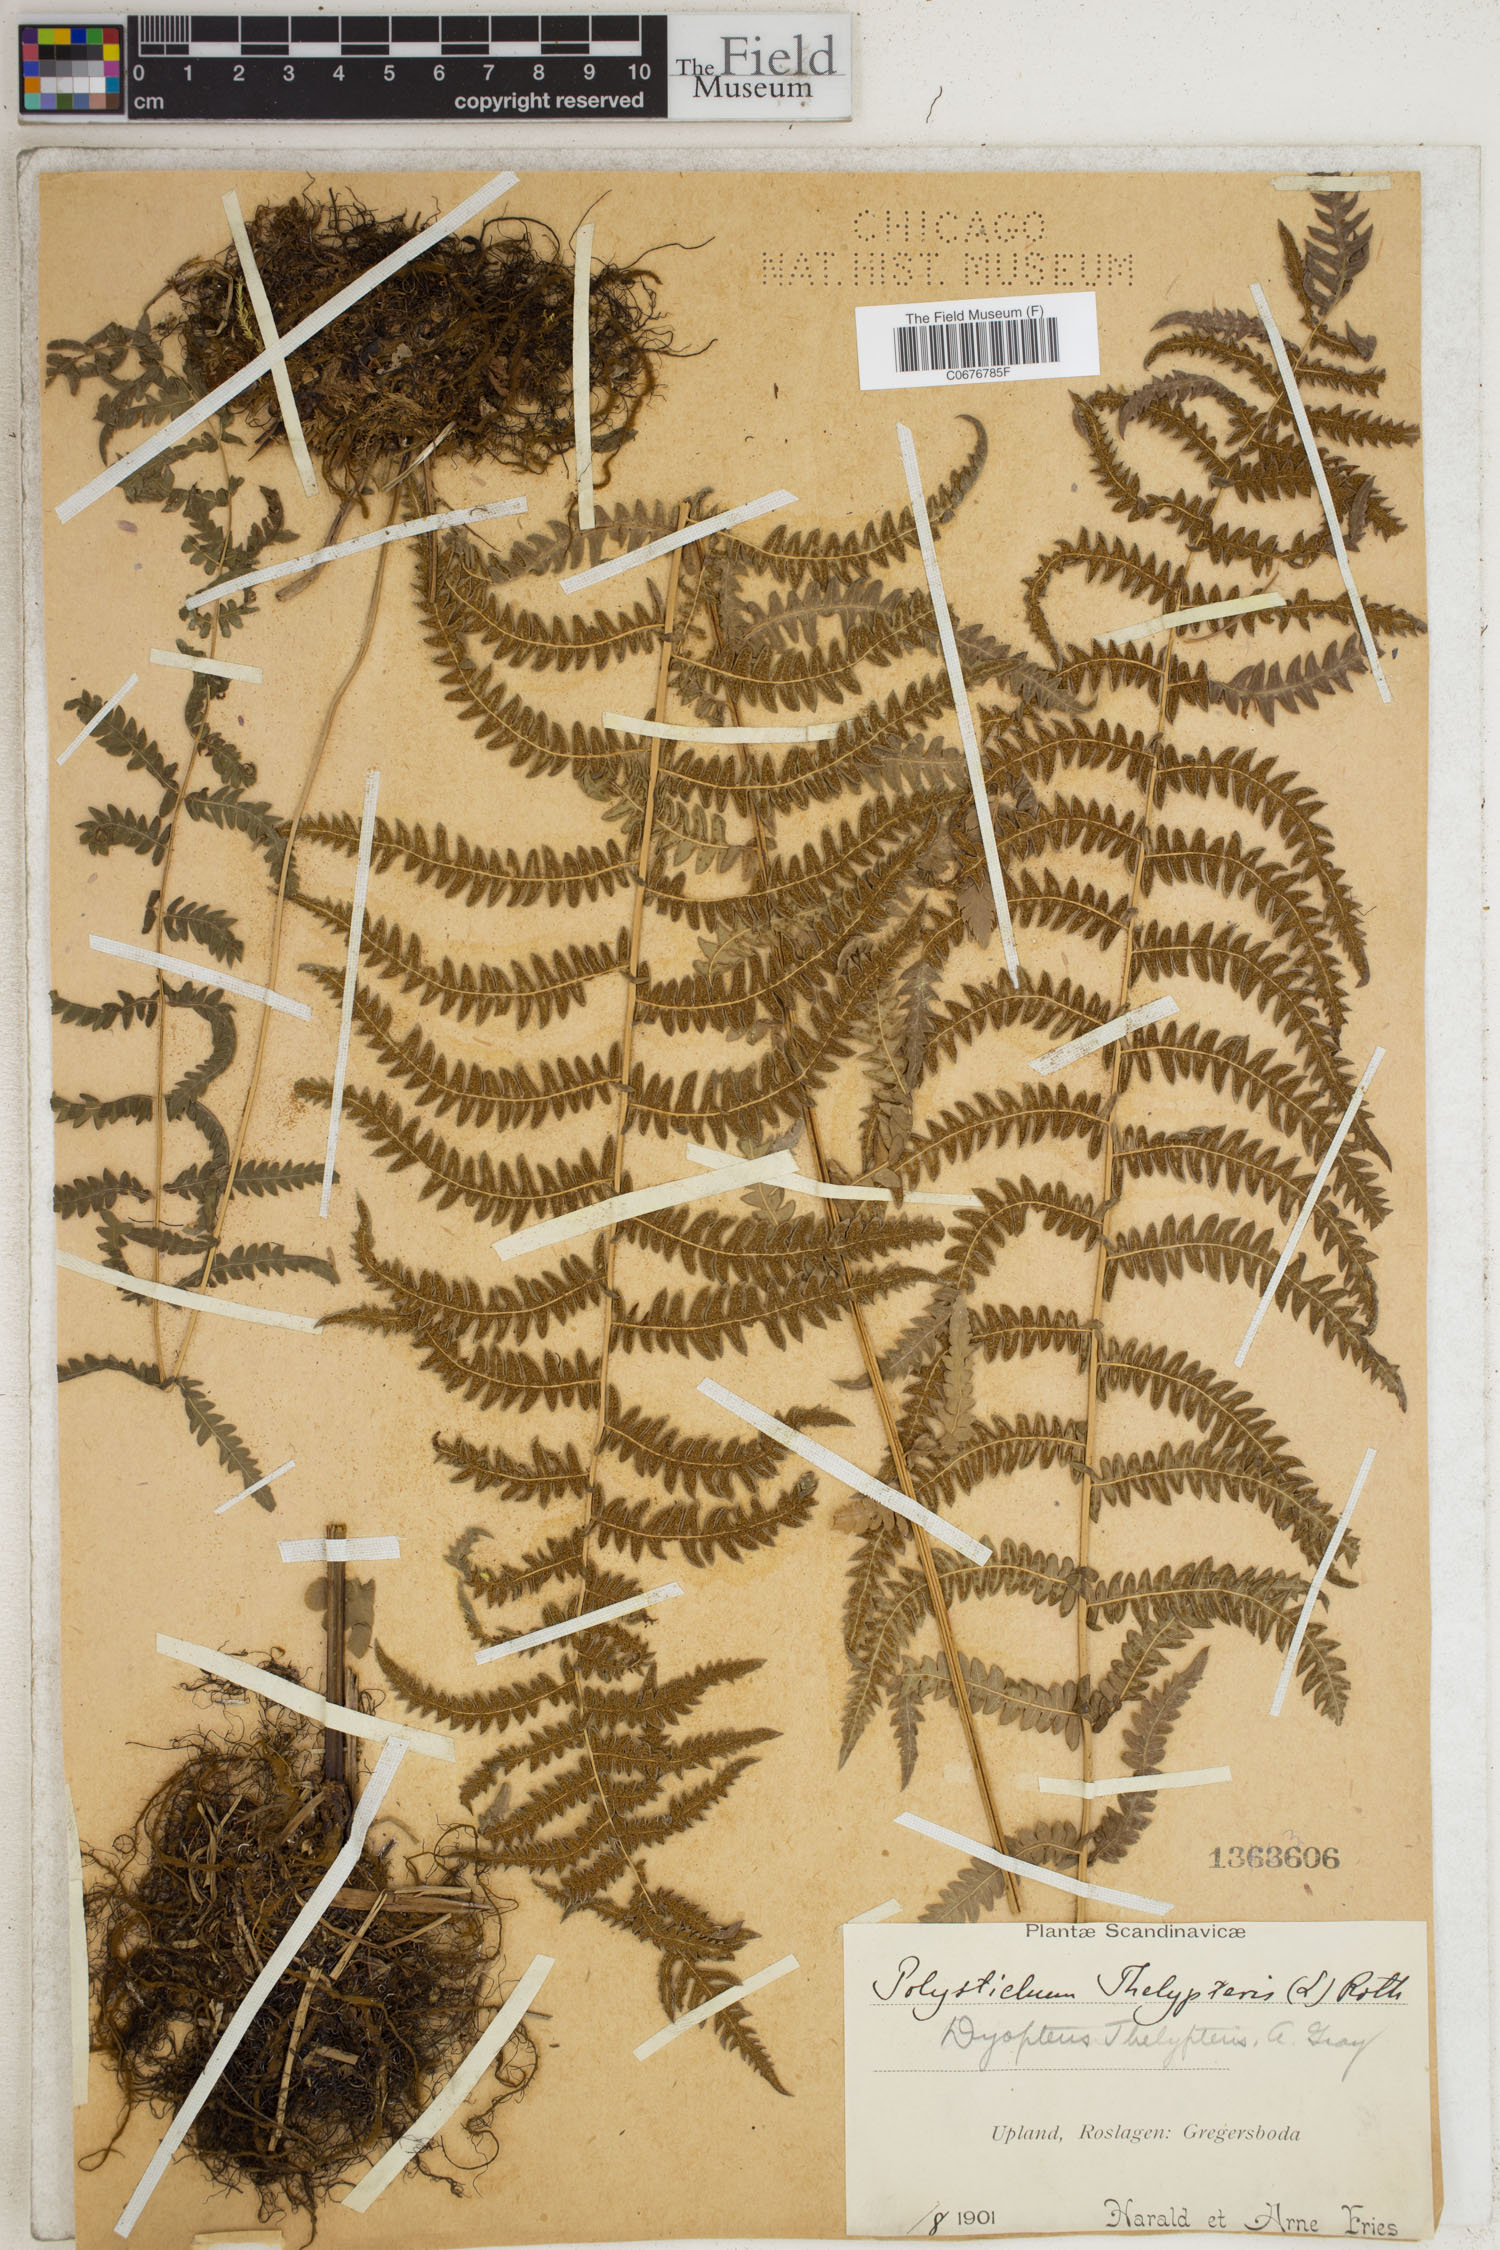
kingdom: Plantae
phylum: Tracheophyta
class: Polypodiopsida
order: Polypodiales
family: Thelypteridaceae
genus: Thelypteris
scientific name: Thelypteris palustris
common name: Marsh fern
